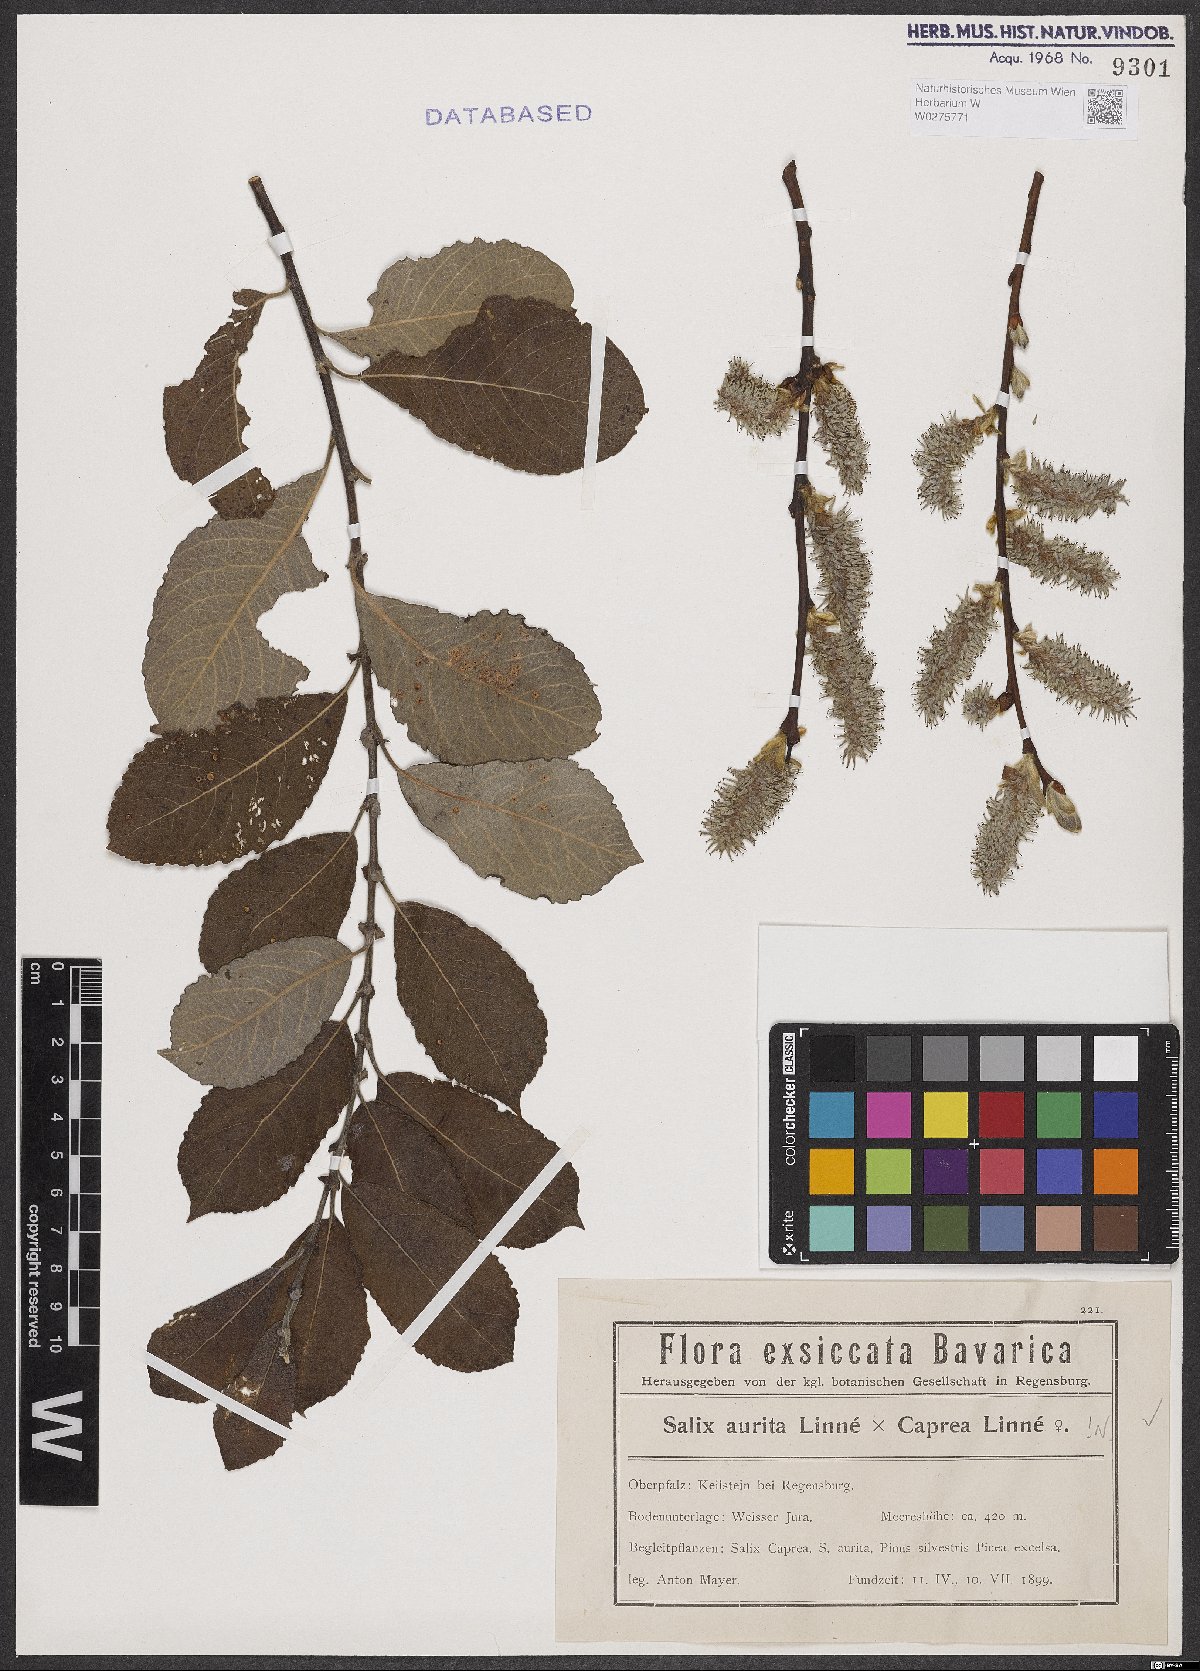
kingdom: Plantae
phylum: Tracheophyta
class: Magnoliopsida
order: Malpighiales
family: Salicaceae
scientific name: Salicaceae
